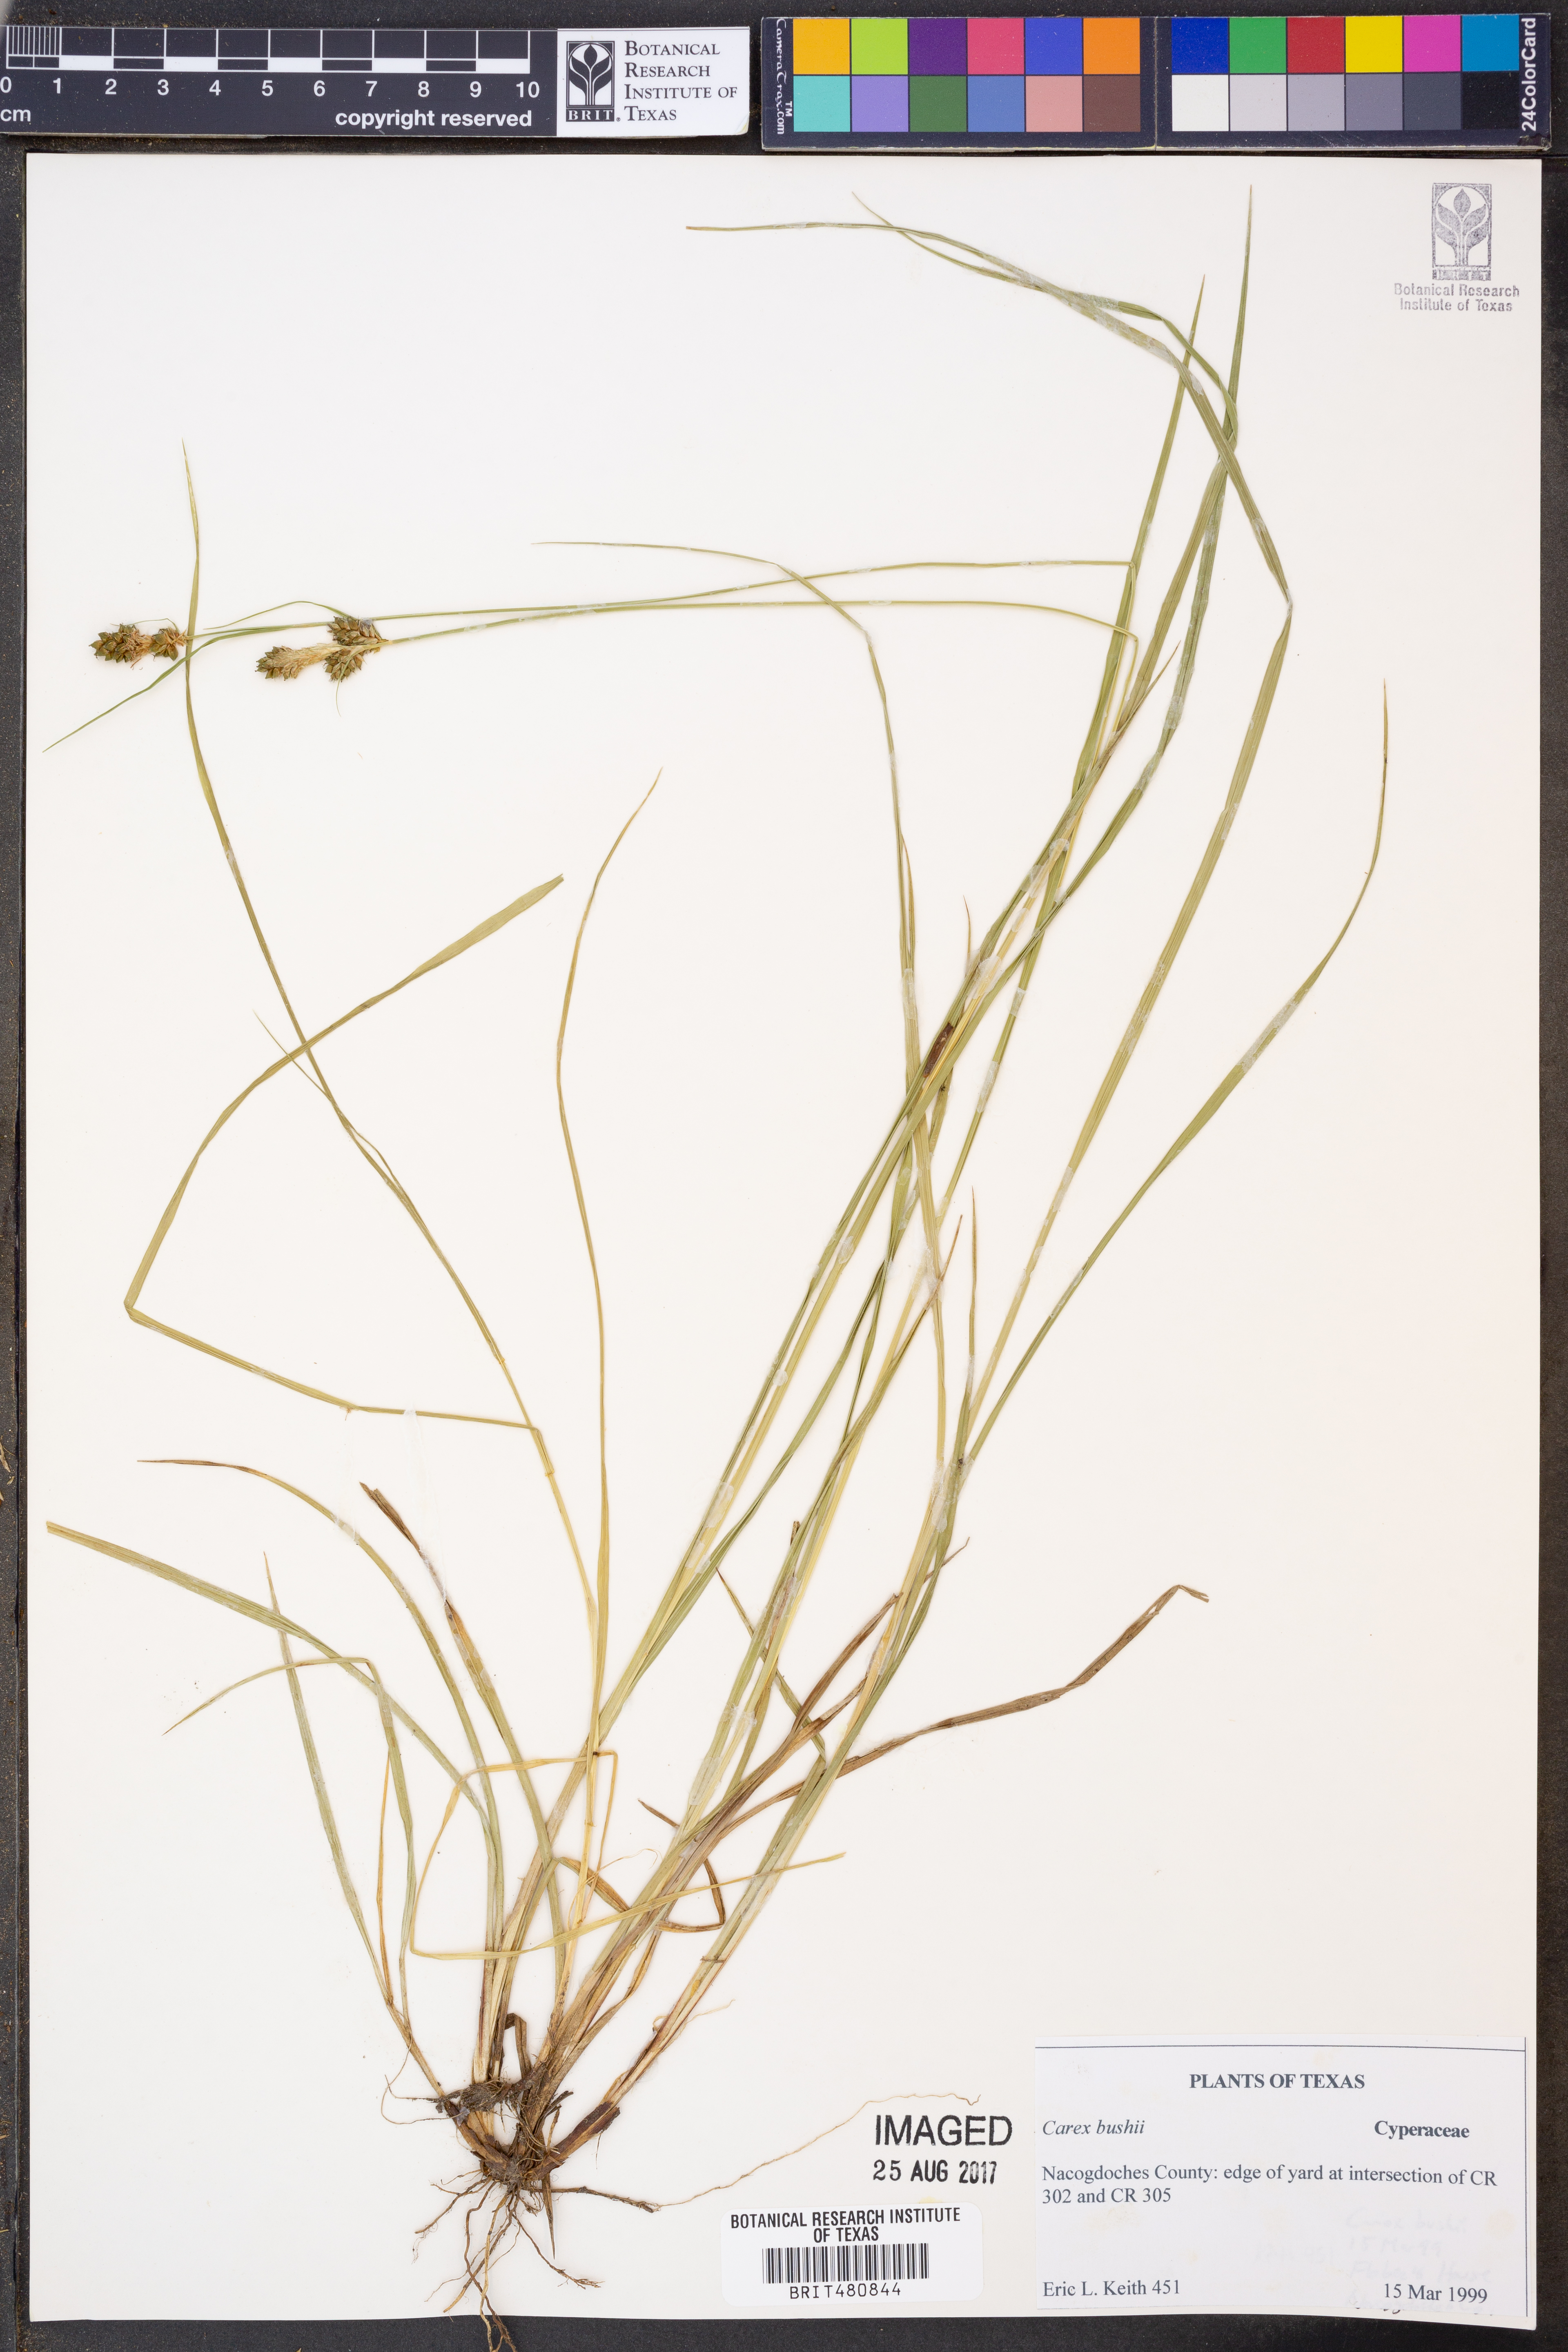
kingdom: Plantae
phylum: Tracheophyta
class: Liliopsida
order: Poales
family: Cyperaceae
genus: Carex
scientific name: Carex bushii
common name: Bush's sedge
